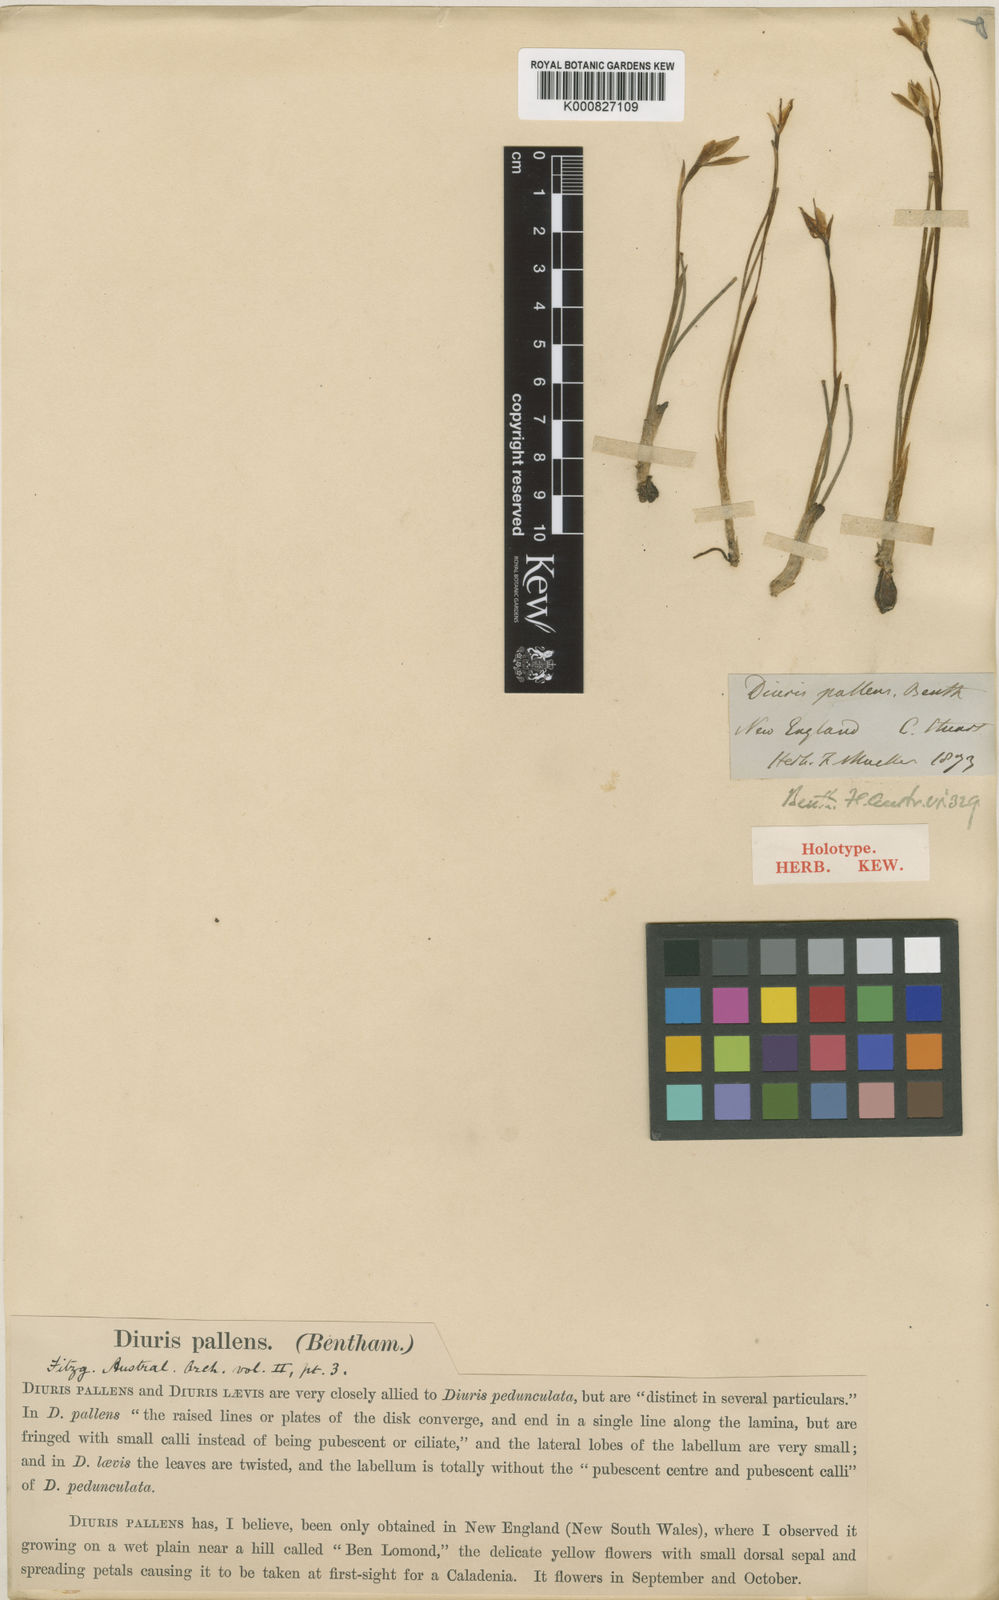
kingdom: Plantae
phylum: Tracheophyta
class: Liliopsida
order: Asparagales
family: Orchidaceae
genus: Diuris
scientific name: Diuris pedunculata
